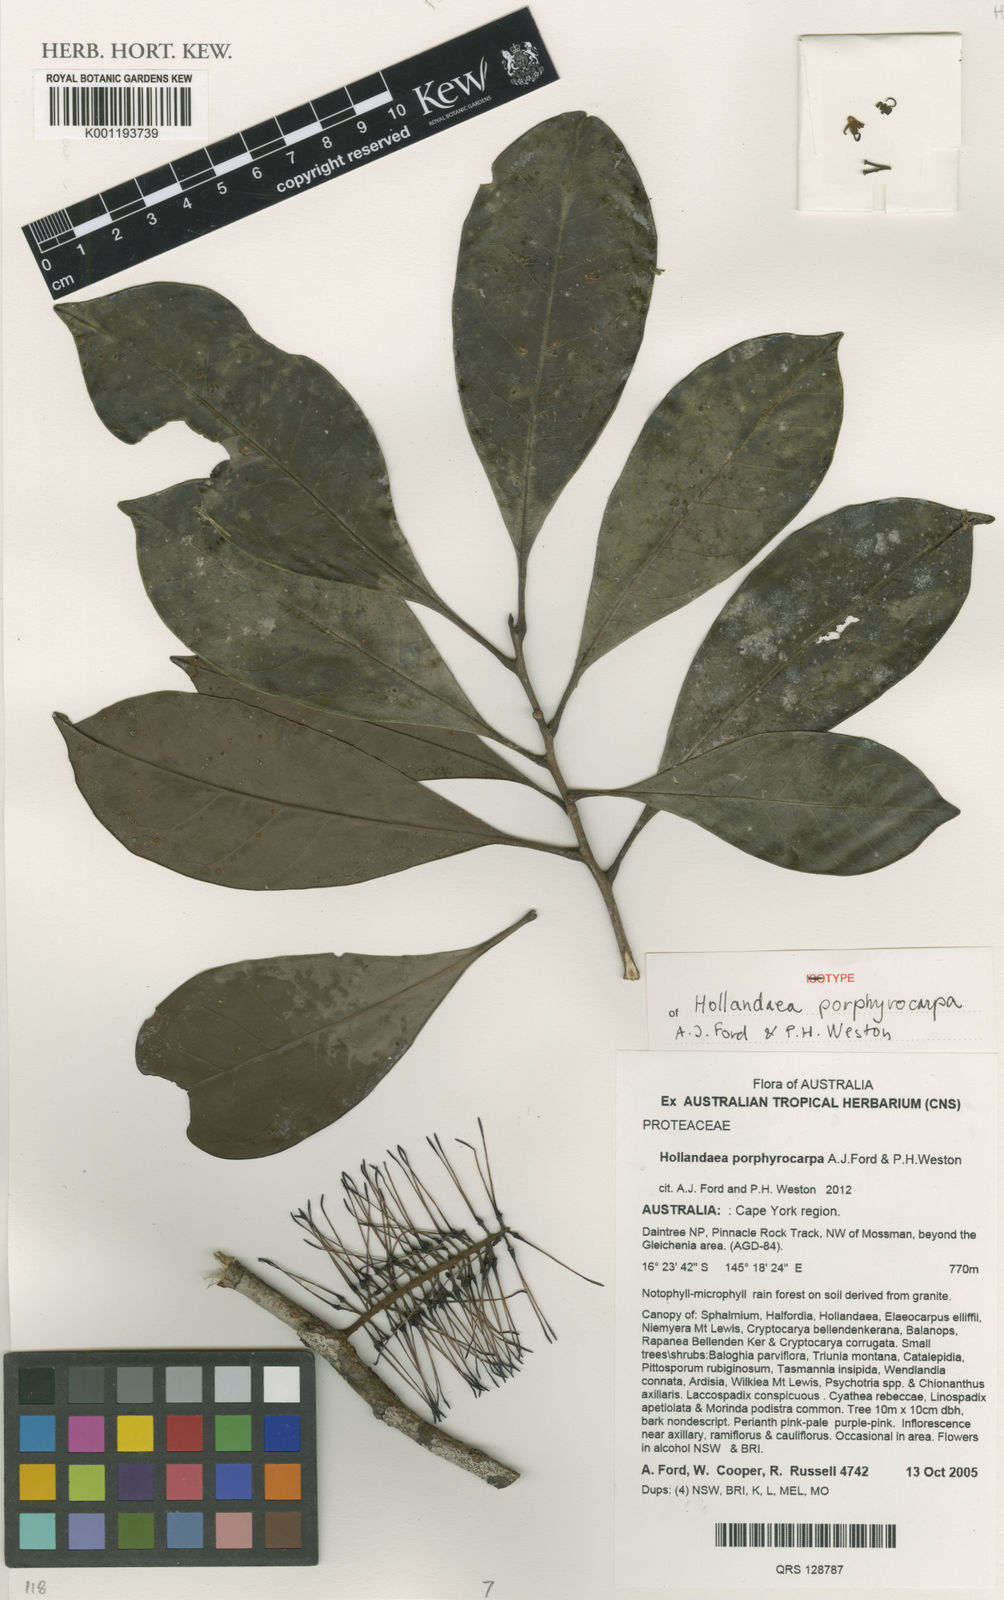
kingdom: Plantae
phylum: Tracheophyta
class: Magnoliopsida
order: Proteales
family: Proteaceae
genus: Hollandaea
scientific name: Hollandaea porphyrocarpa
